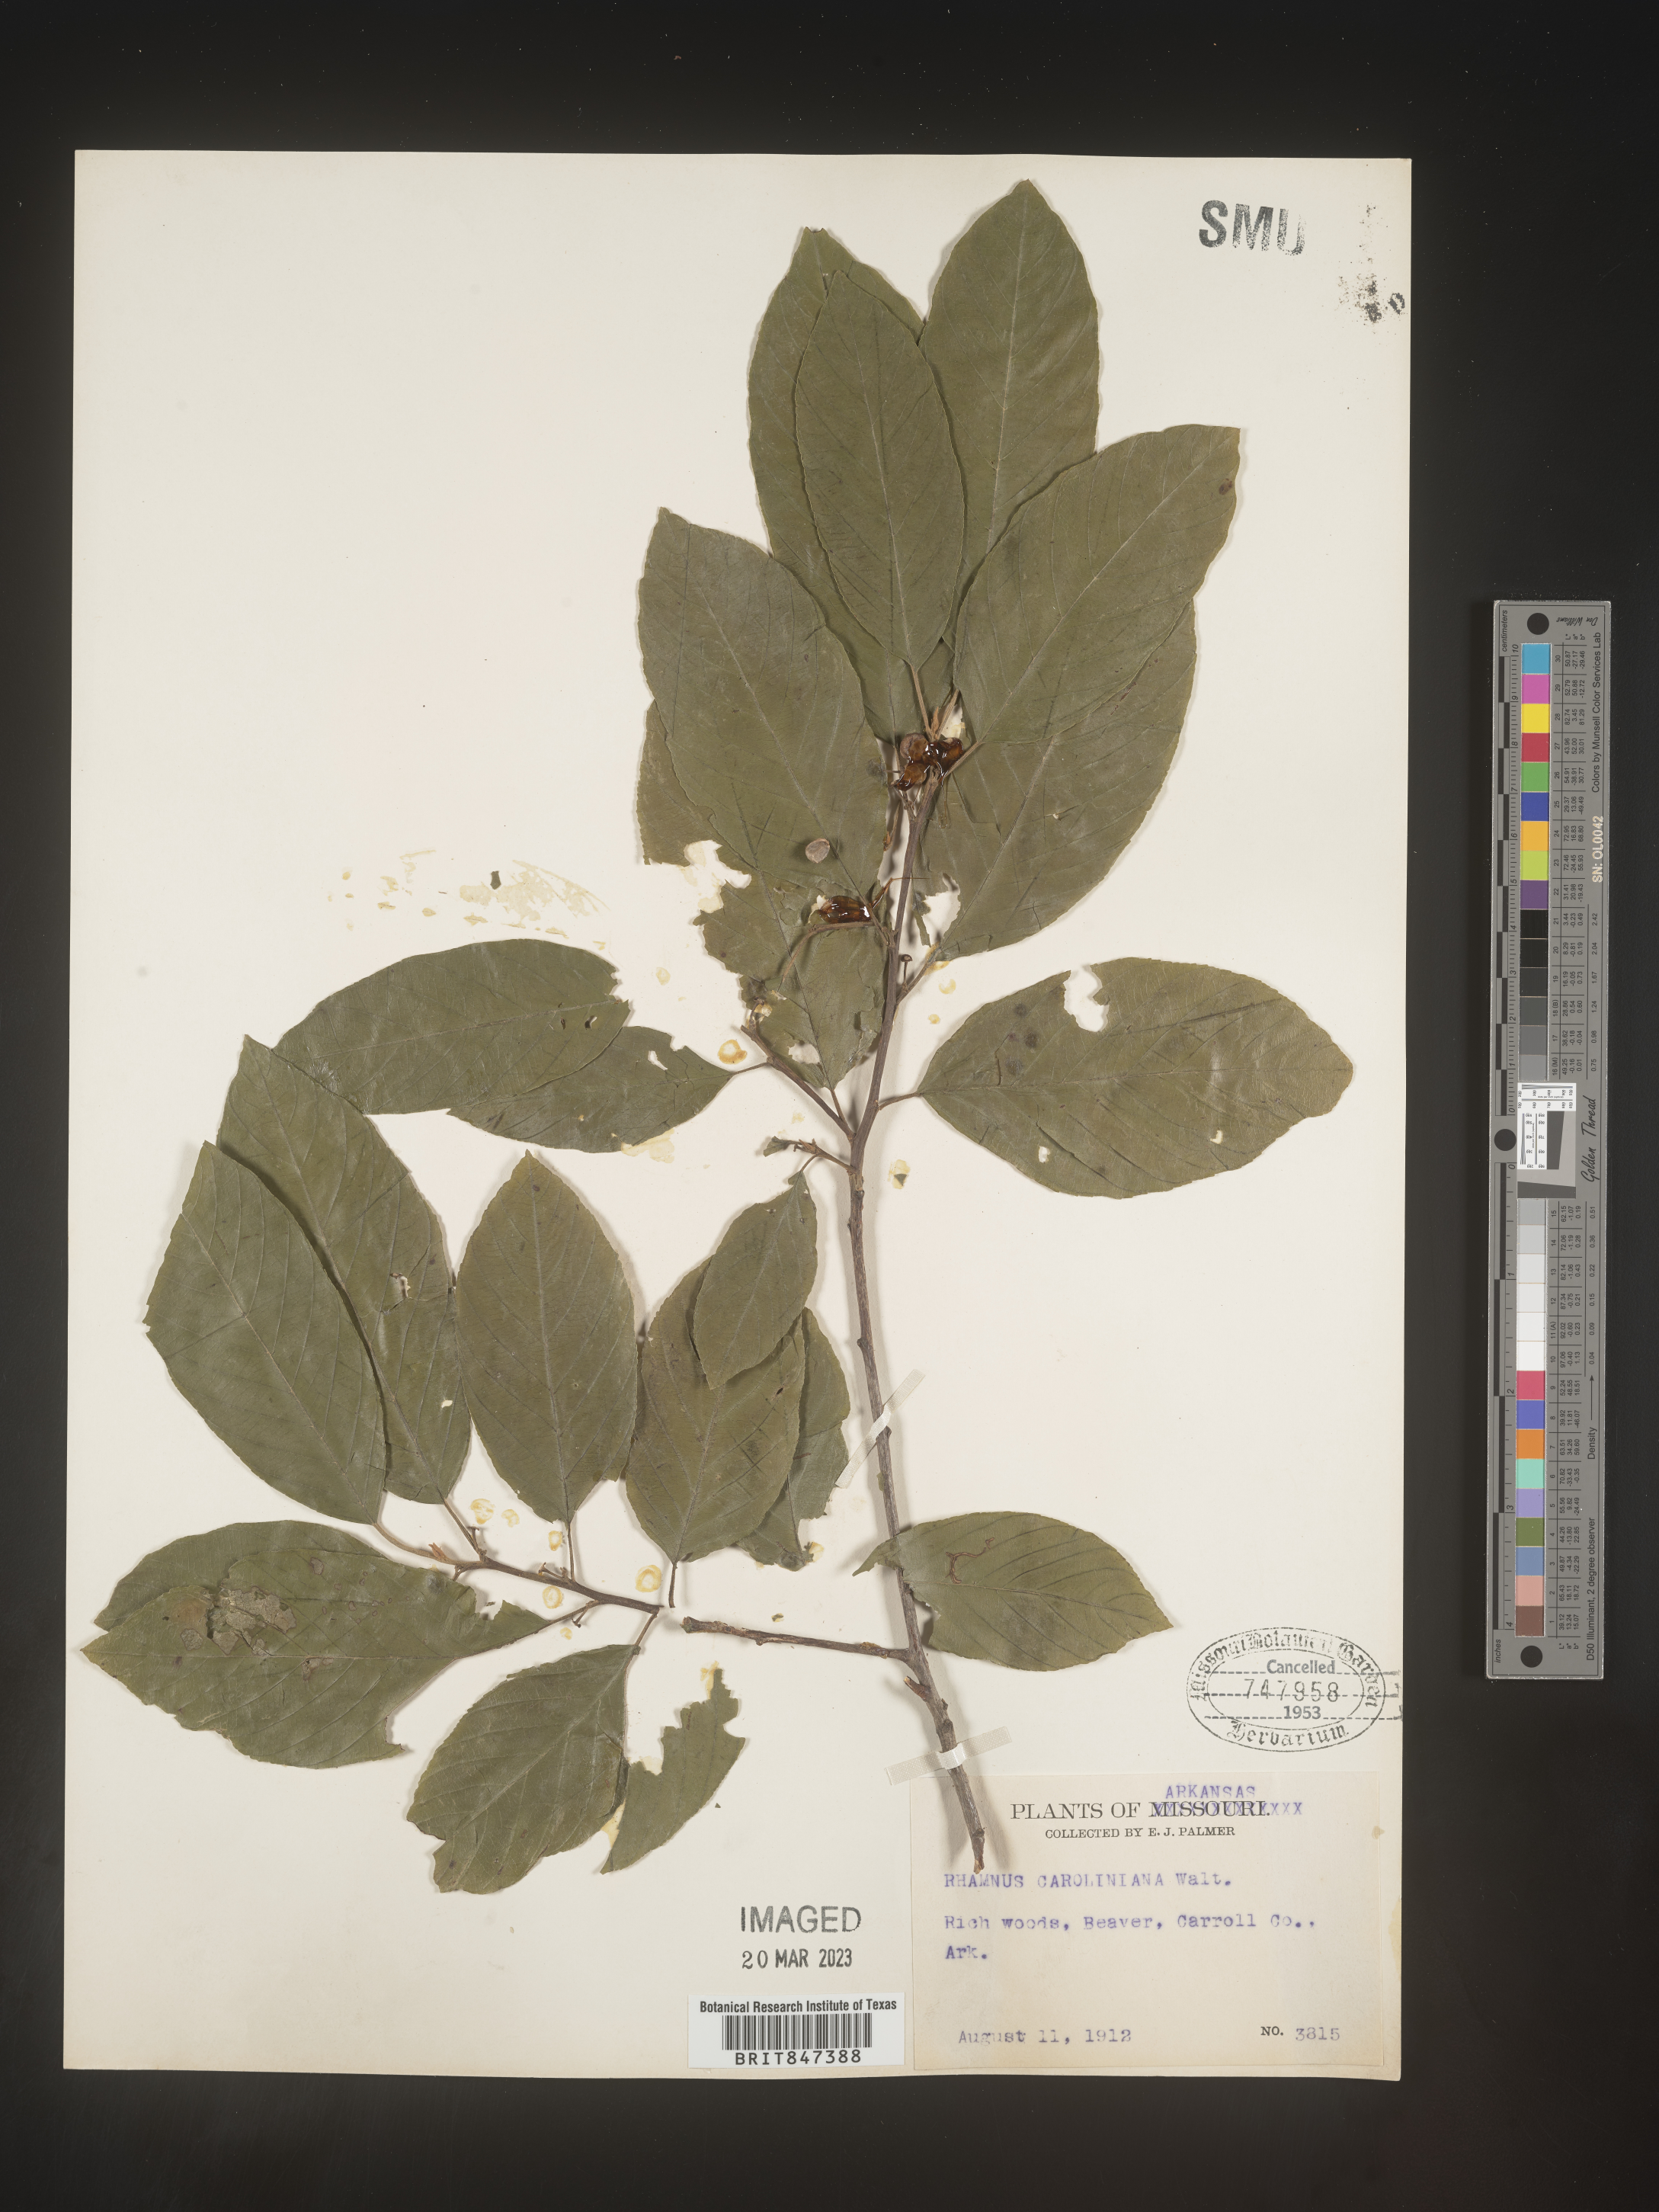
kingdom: Plantae
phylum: Tracheophyta
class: Magnoliopsida
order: Rosales
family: Rhamnaceae
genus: Frangula
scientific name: Frangula caroliniana
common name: Carolina buckthorn
